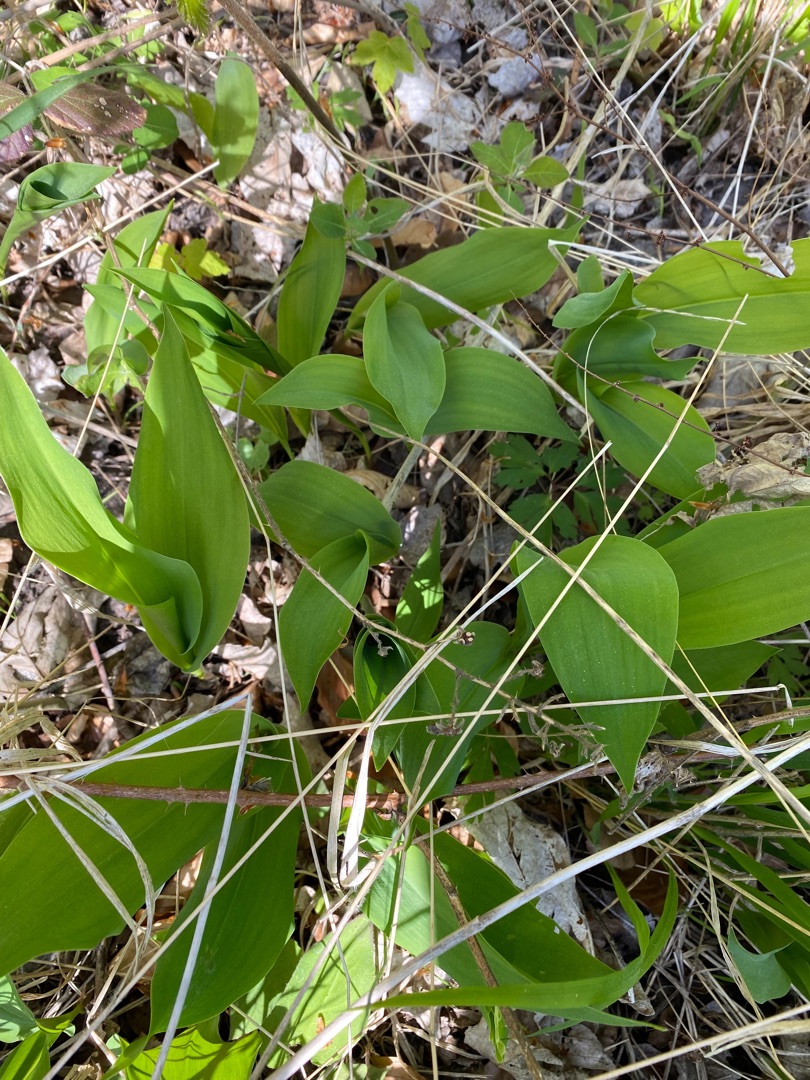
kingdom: Plantae
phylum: Tracheophyta
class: Liliopsida
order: Asparagales
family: Asparagaceae
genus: Convallaria
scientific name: Convallaria majalis
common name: Liljekonval
